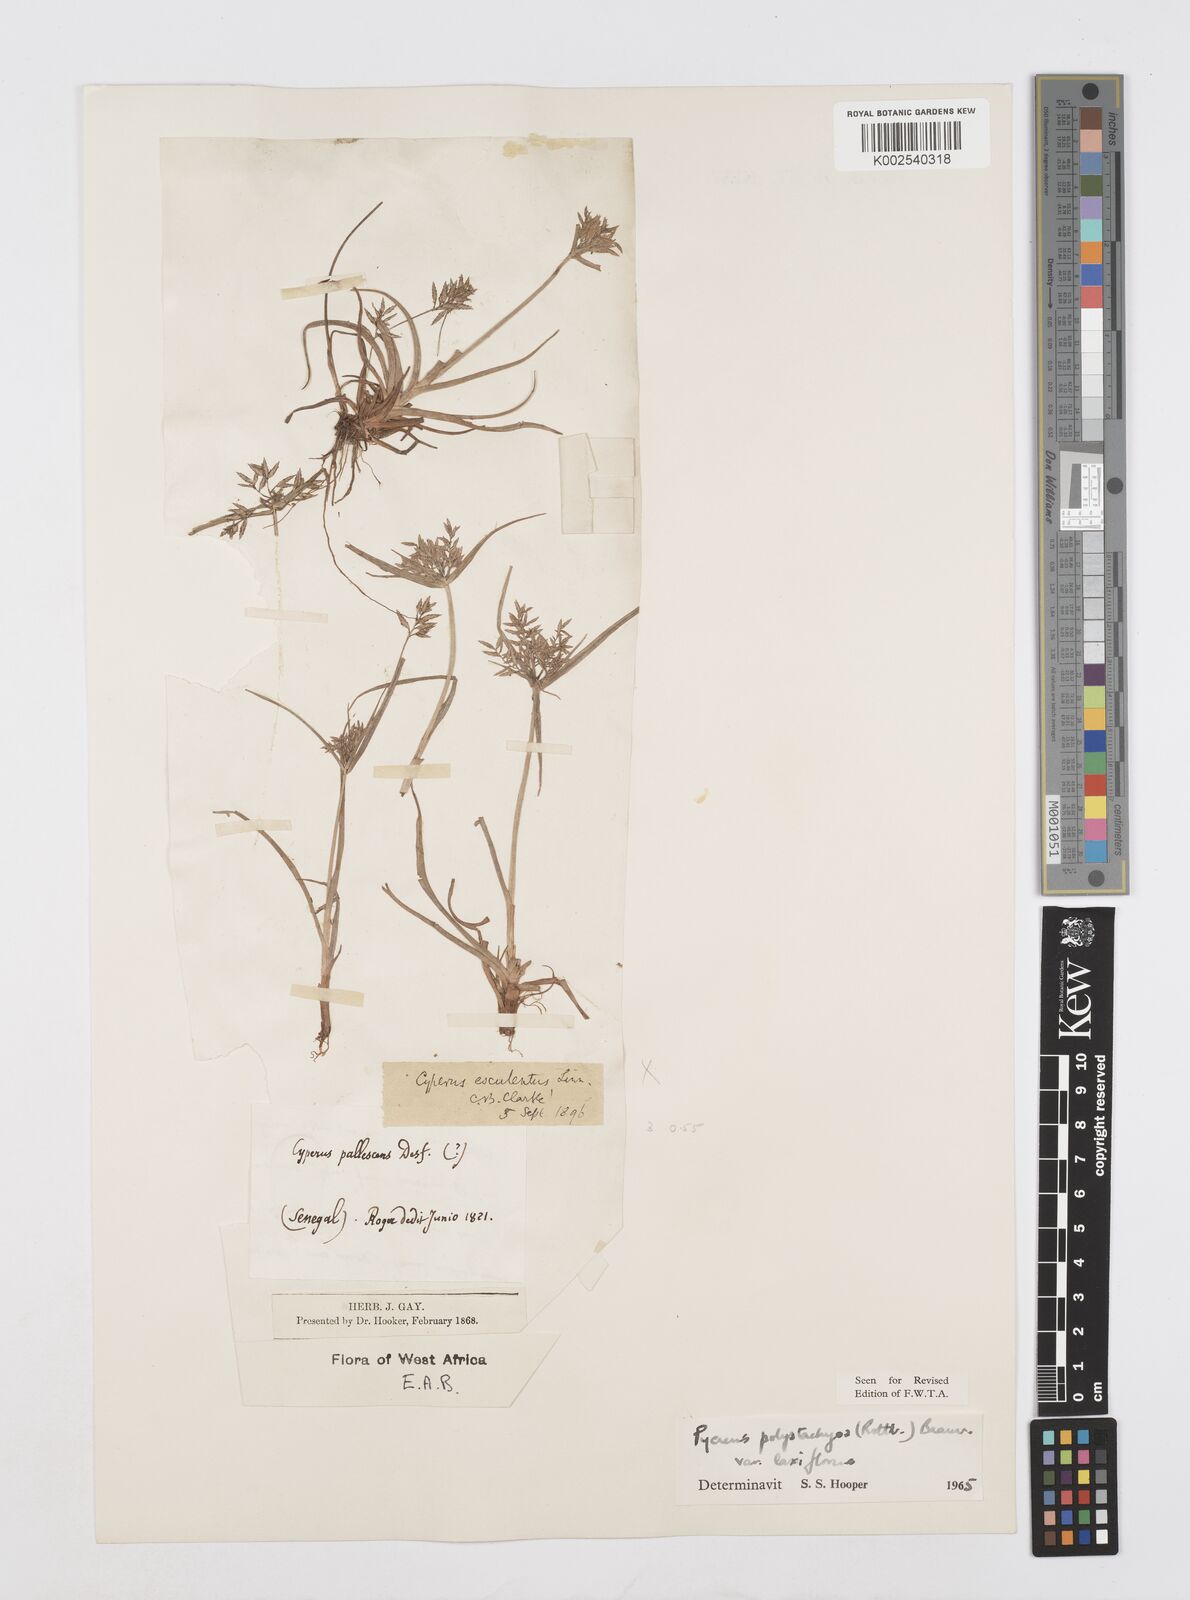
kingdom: Plantae
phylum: Tracheophyta
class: Liliopsida
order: Poales
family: Cyperaceae
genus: Cyperus
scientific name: Cyperus polystachyos
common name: Bunchy flat sedge
